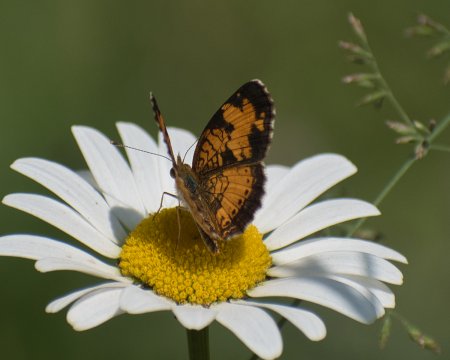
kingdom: Animalia
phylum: Arthropoda
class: Insecta
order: Lepidoptera
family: Nymphalidae
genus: Phyciodes
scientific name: Phyciodes tharos
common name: Northern Crescent
